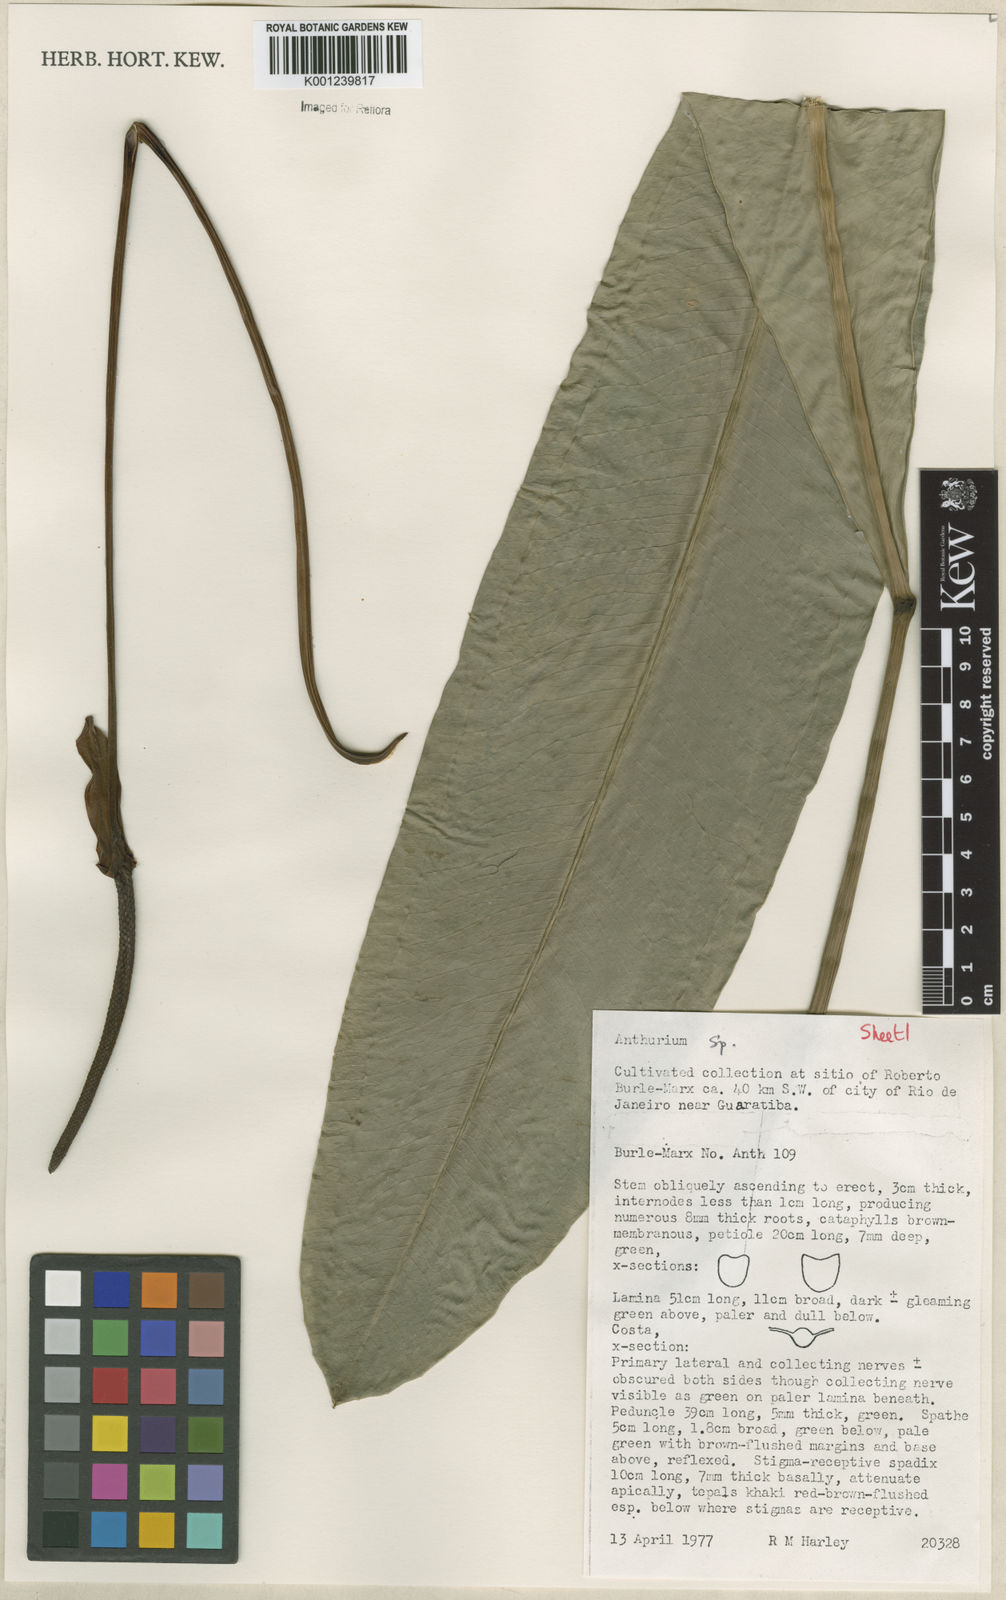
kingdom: Plantae
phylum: Tracheophyta
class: Liliopsida
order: Alismatales
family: Araceae
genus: Anthurium
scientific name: Anthurium
